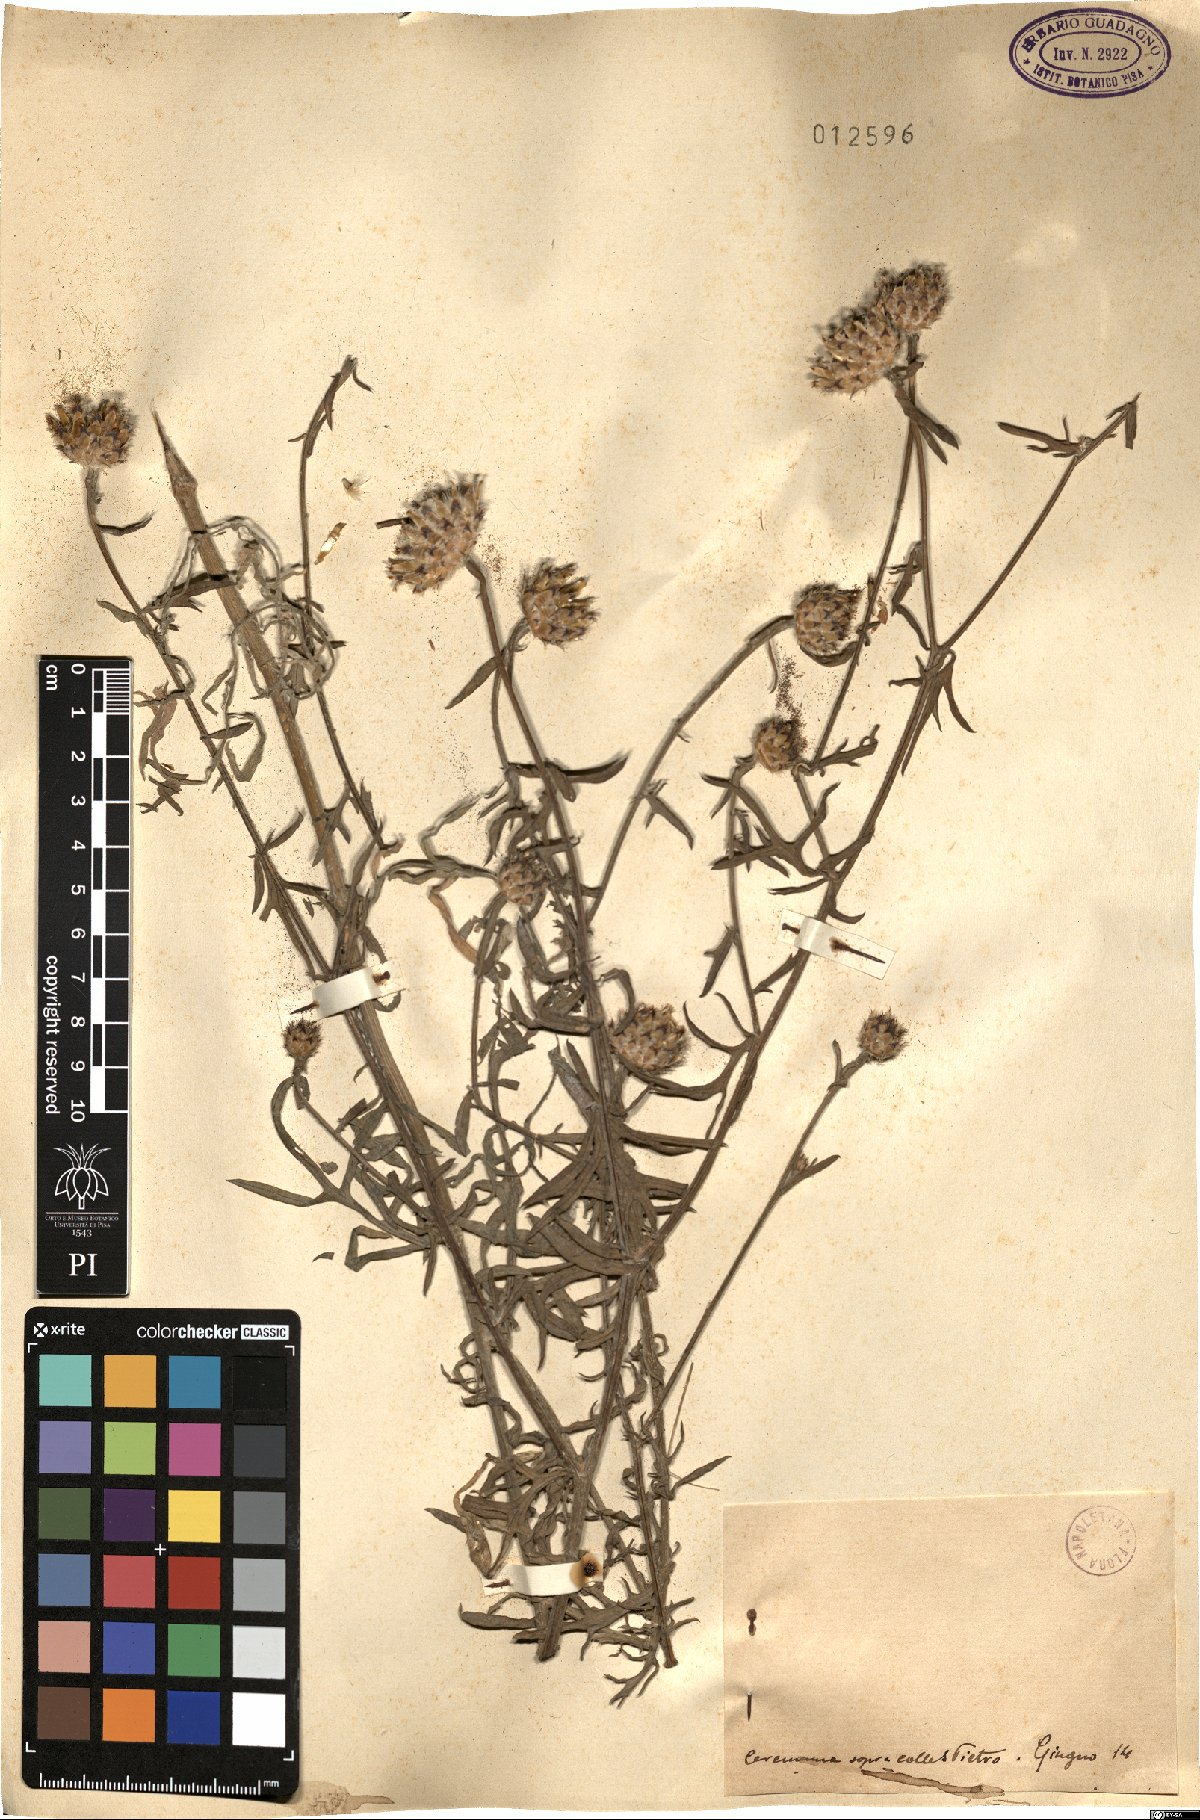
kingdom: Plantae
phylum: Tracheophyta
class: Magnoliopsida
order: Asterales
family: Asteraceae
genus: Centaurea
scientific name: Centaurea
